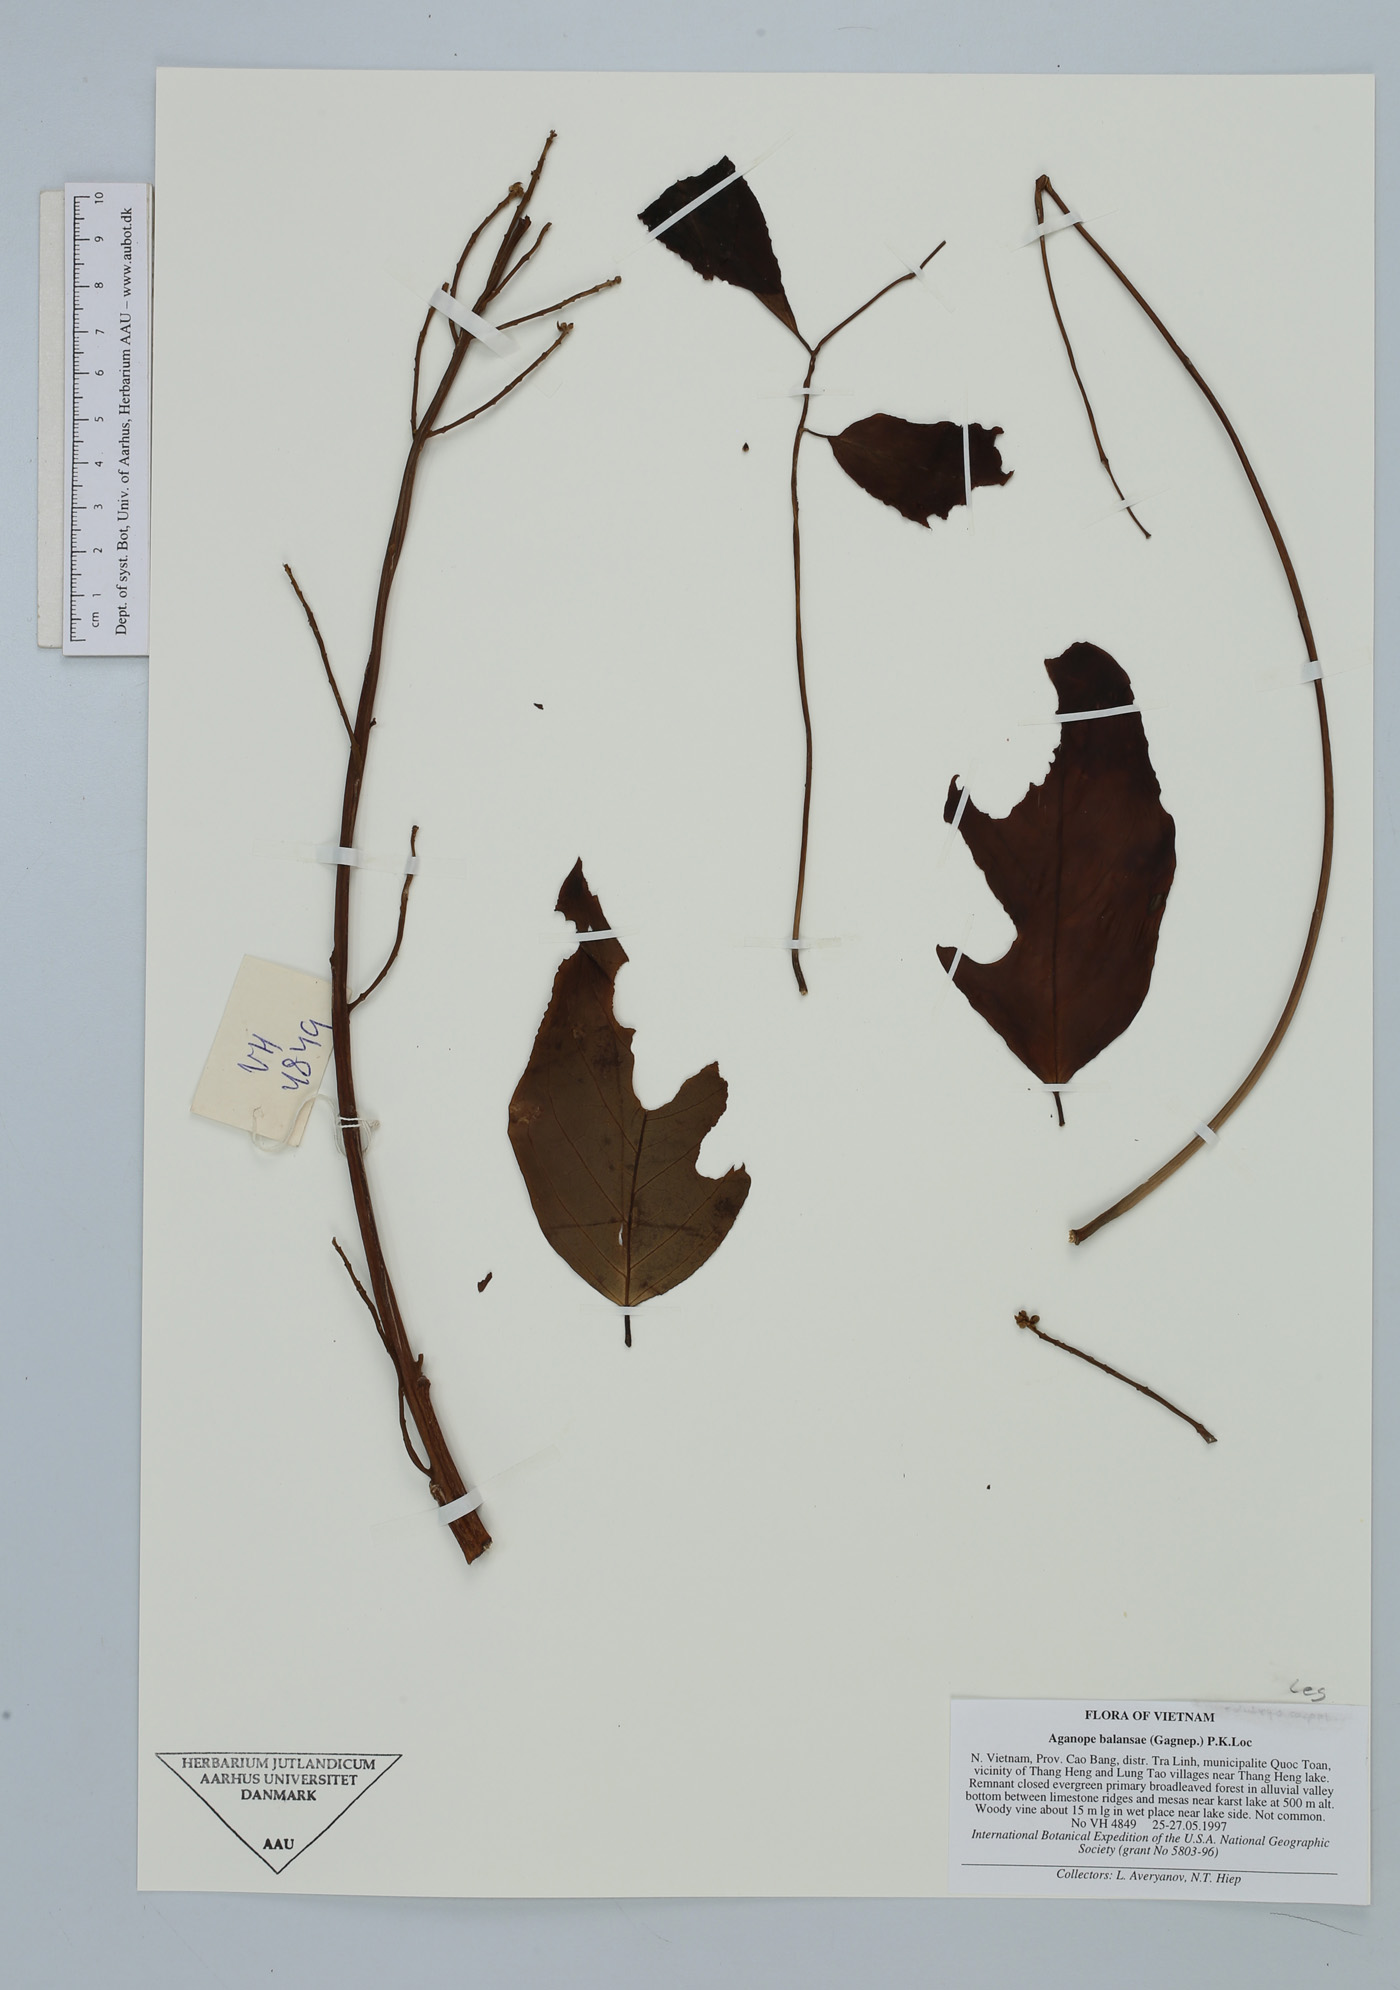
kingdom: Plantae
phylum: Tracheophyta
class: Magnoliopsida
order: Fabales
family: Fabaceae
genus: Aganope
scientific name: Aganope balansae
